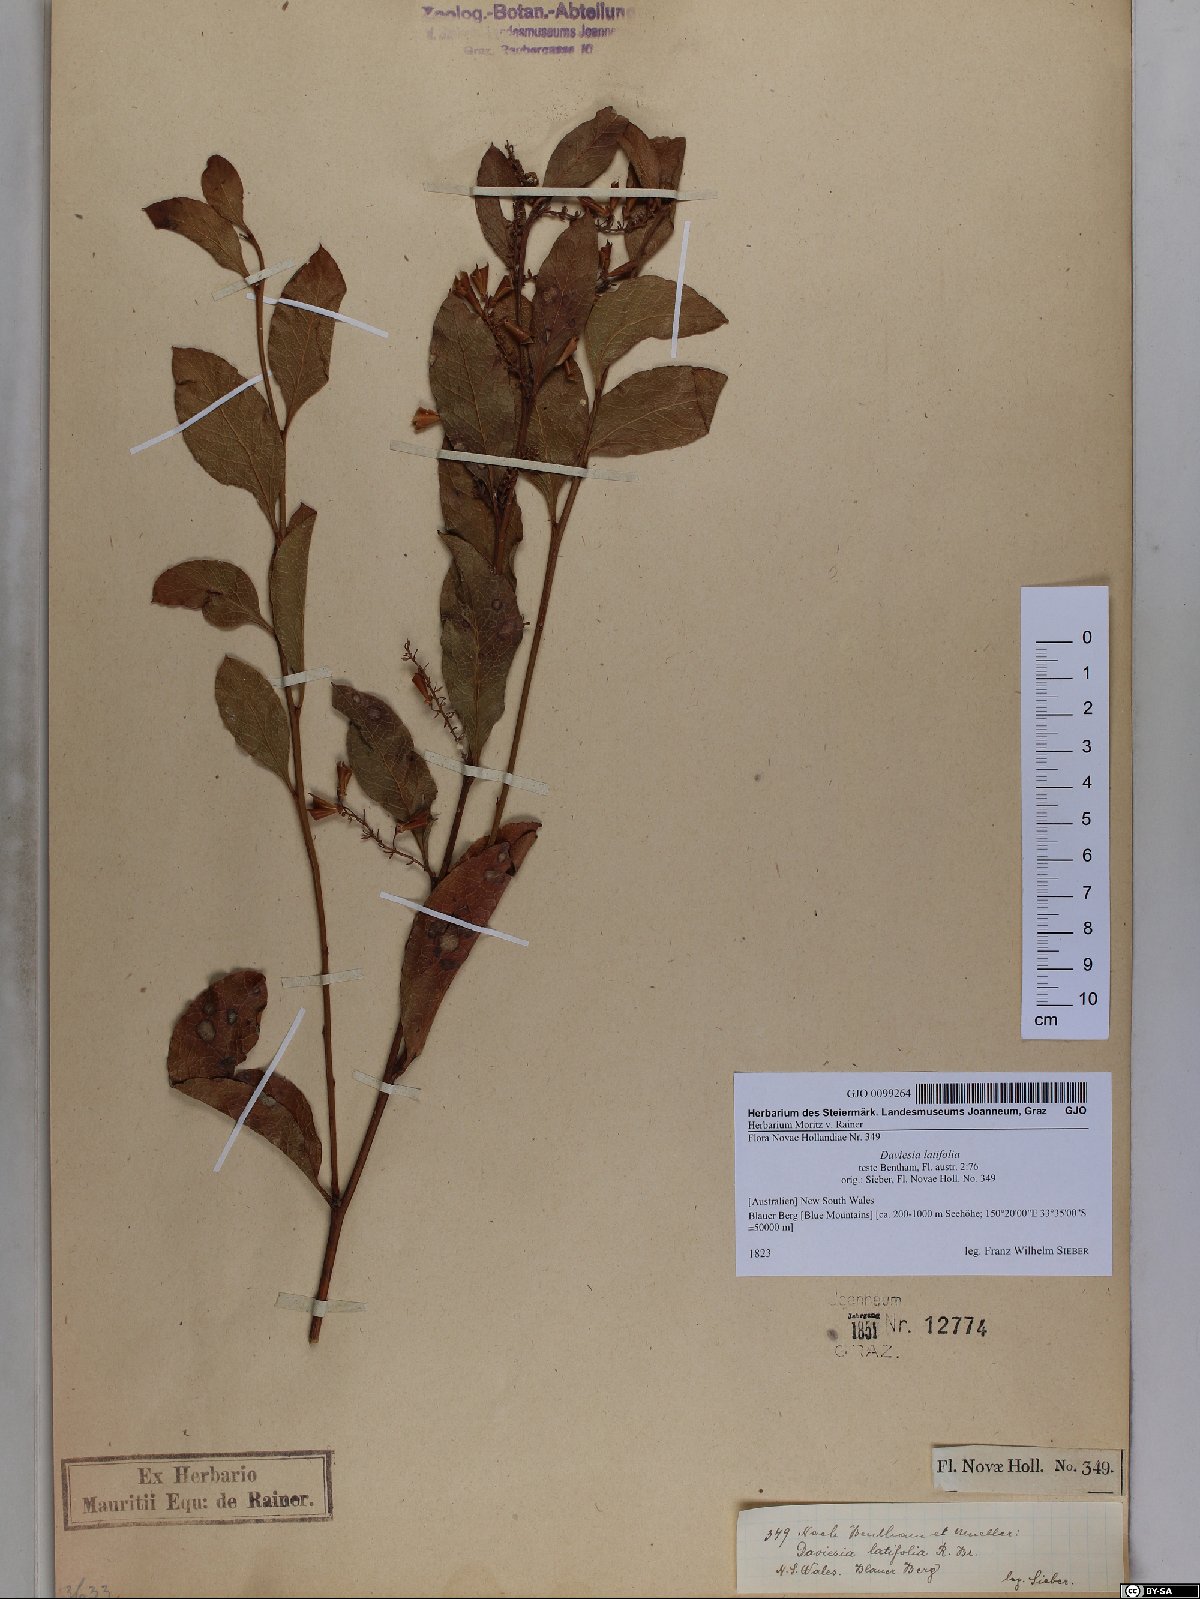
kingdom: Plantae
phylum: Tracheophyta
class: Magnoliopsida
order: Fabales
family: Fabaceae
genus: Daviesia
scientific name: Daviesia latifolia
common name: Hop bitter-pea
